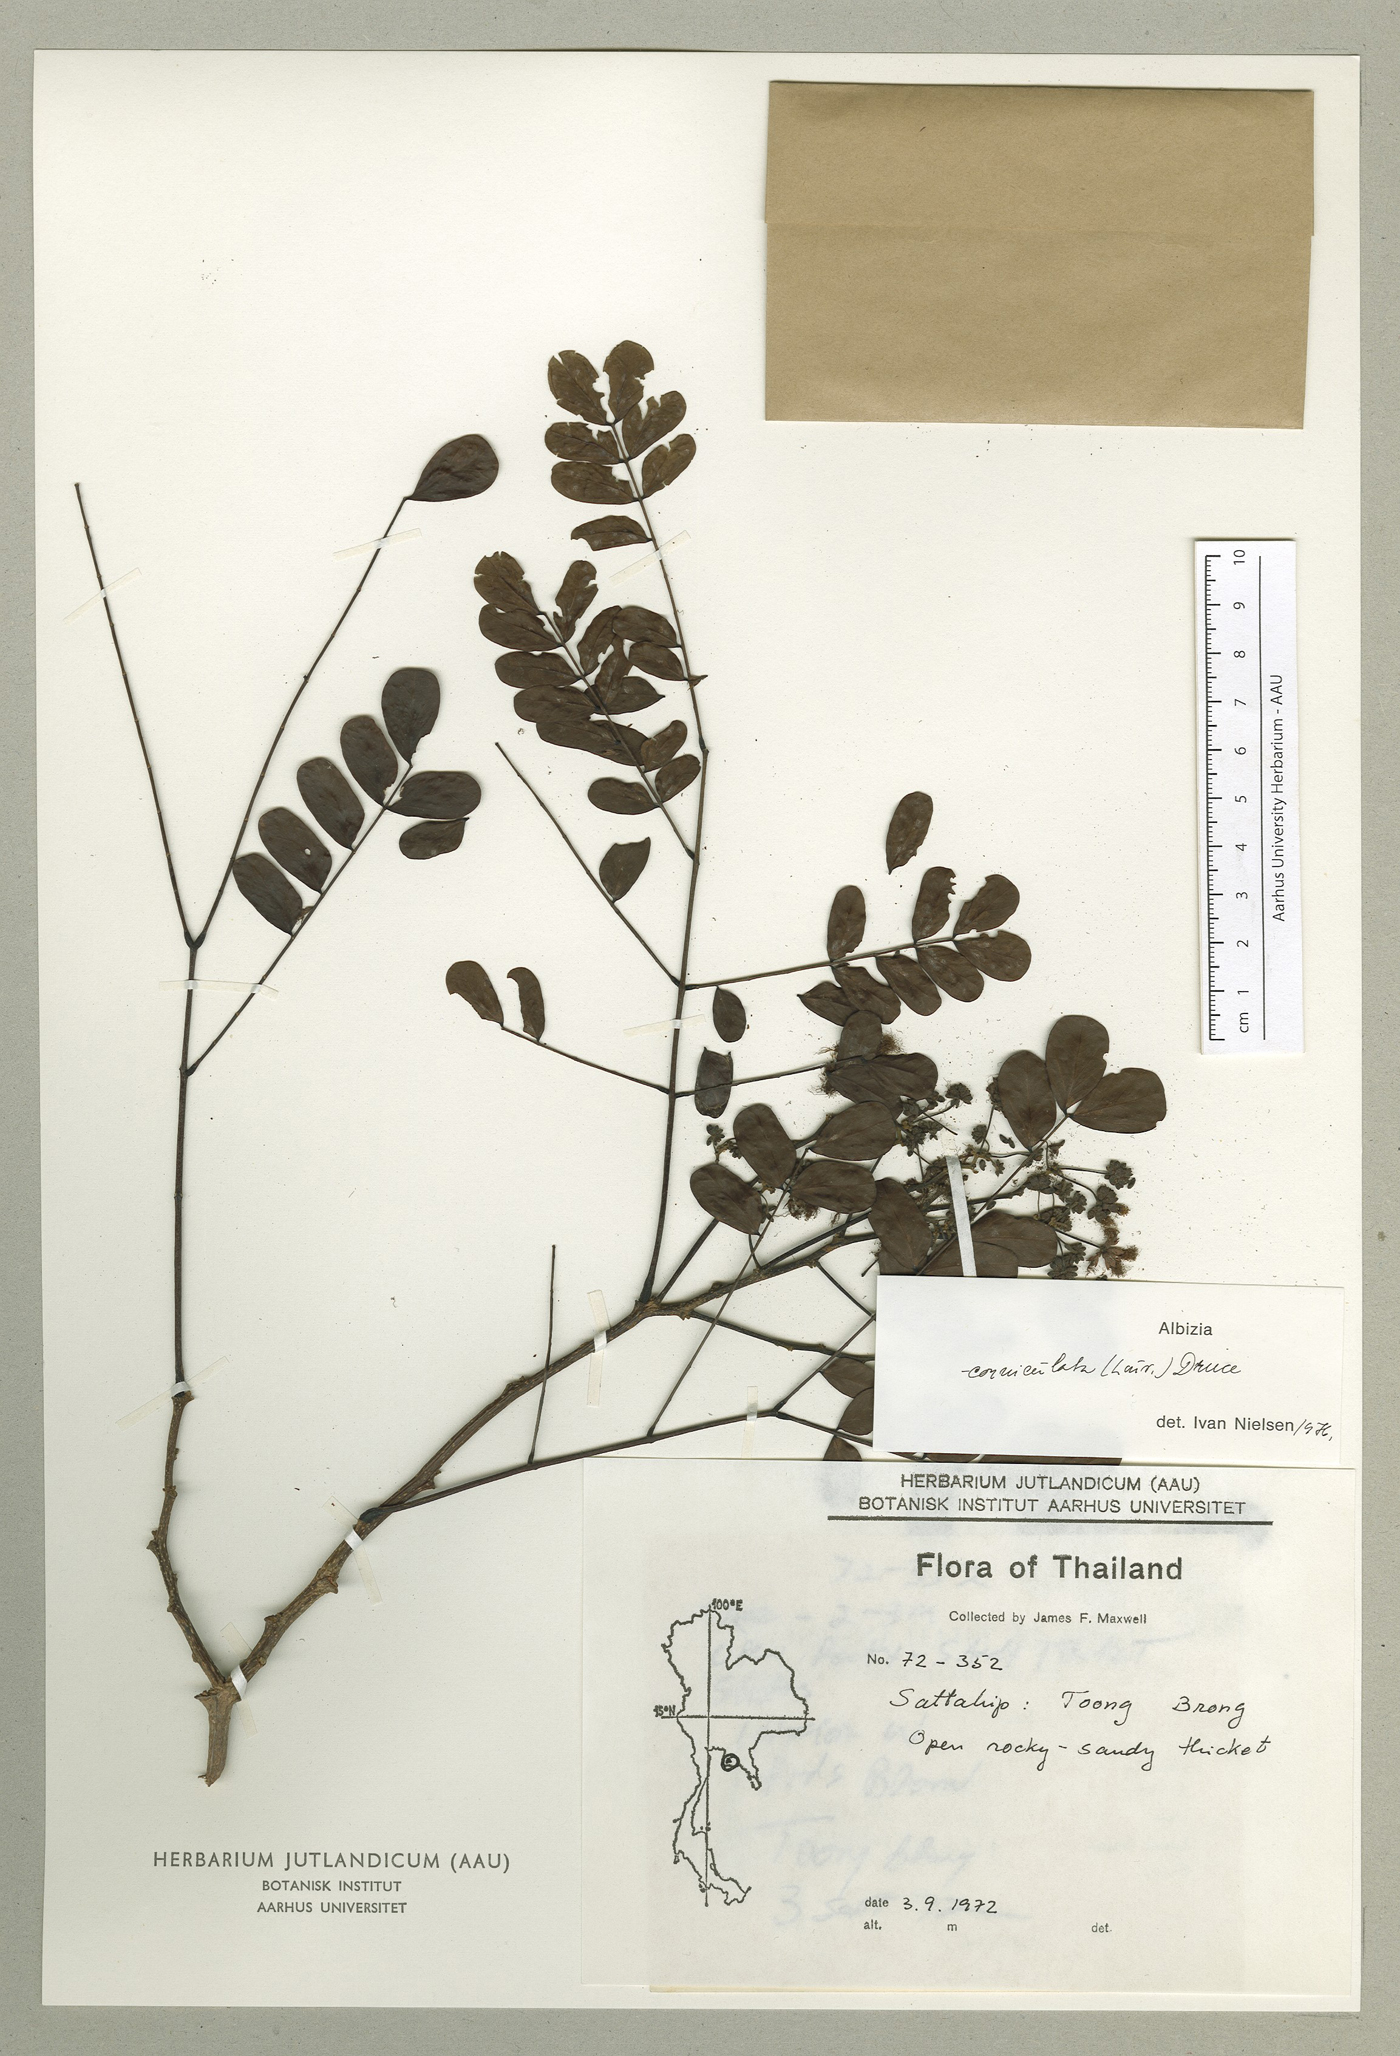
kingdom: Plantae
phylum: Tracheophyta
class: Magnoliopsida
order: Fabales
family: Fabaceae
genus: Albizia
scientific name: Albizia corniculata
